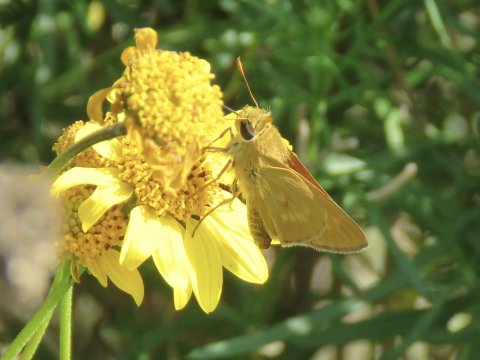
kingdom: Animalia
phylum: Arthropoda
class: Insecta
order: Lepidoptera
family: Hesperiidae
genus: Mellana
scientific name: Mellana eulogius
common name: Common Mellana
